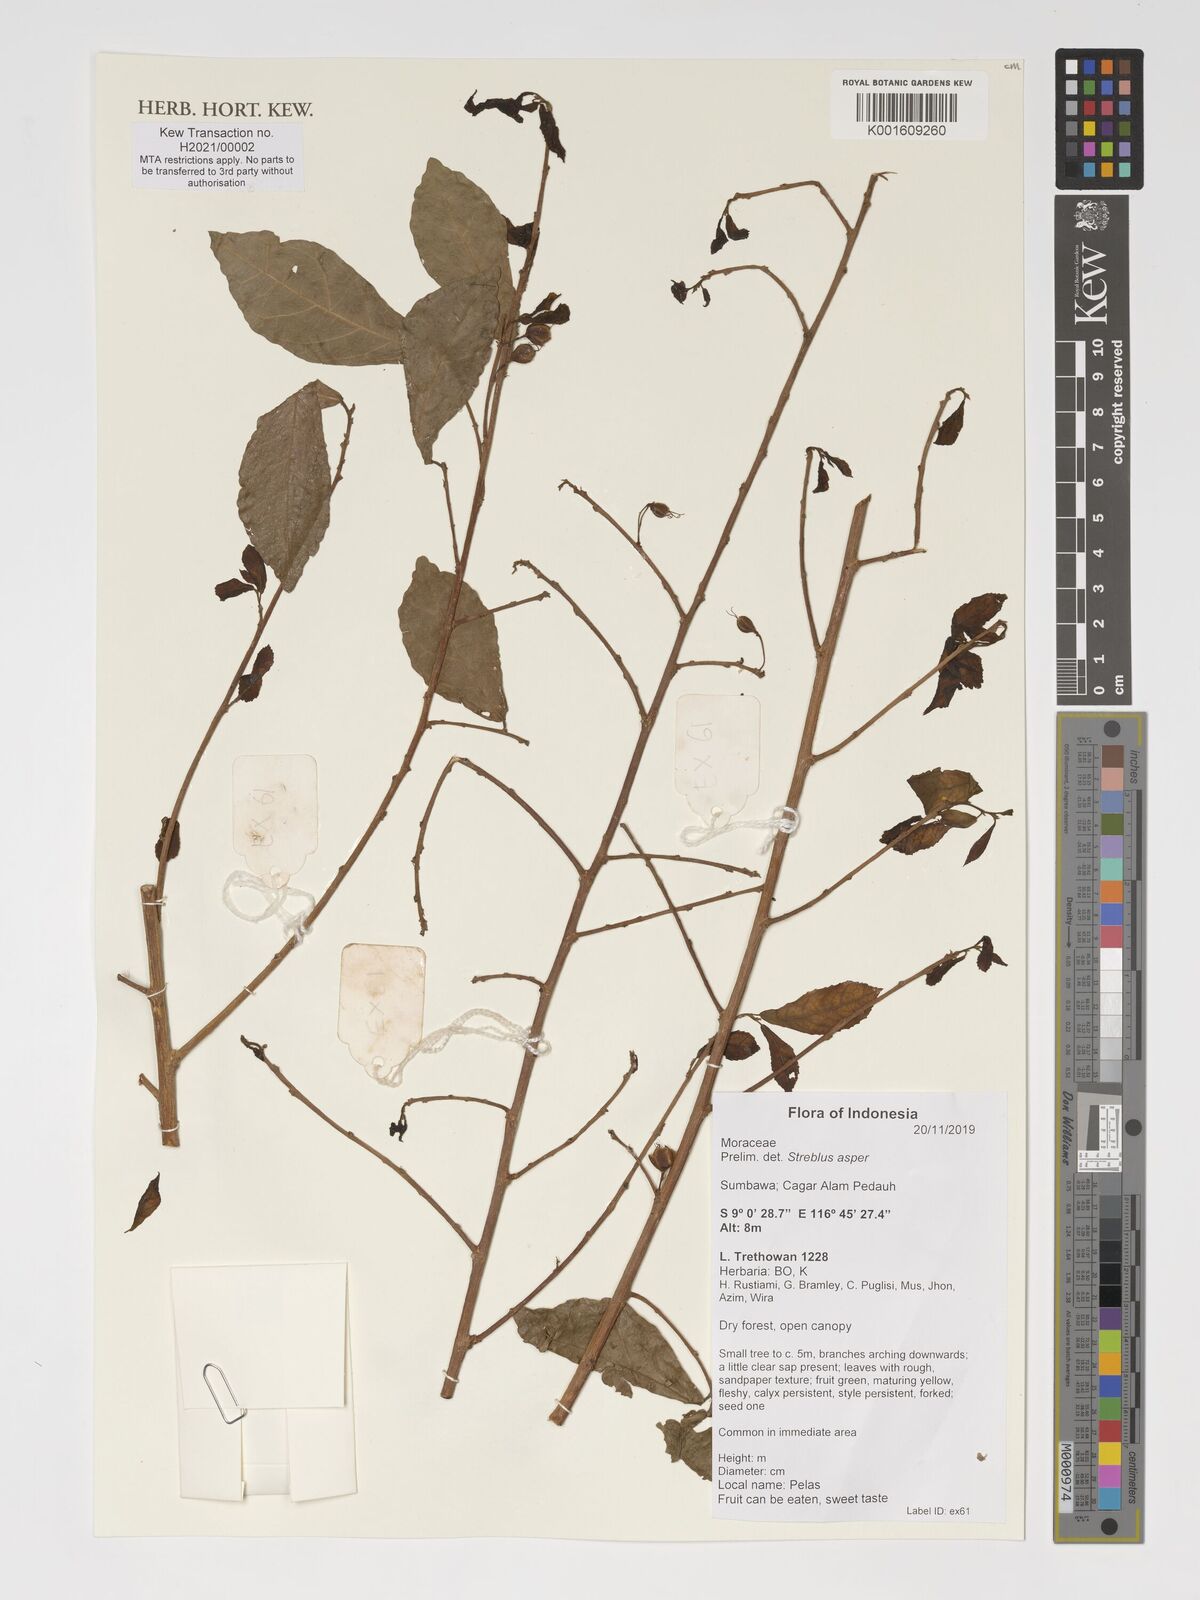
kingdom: Plantae
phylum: Tracheophyta
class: Magnoliopsida
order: Rosales
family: Moraceae
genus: Streblus
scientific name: Streblus asper
